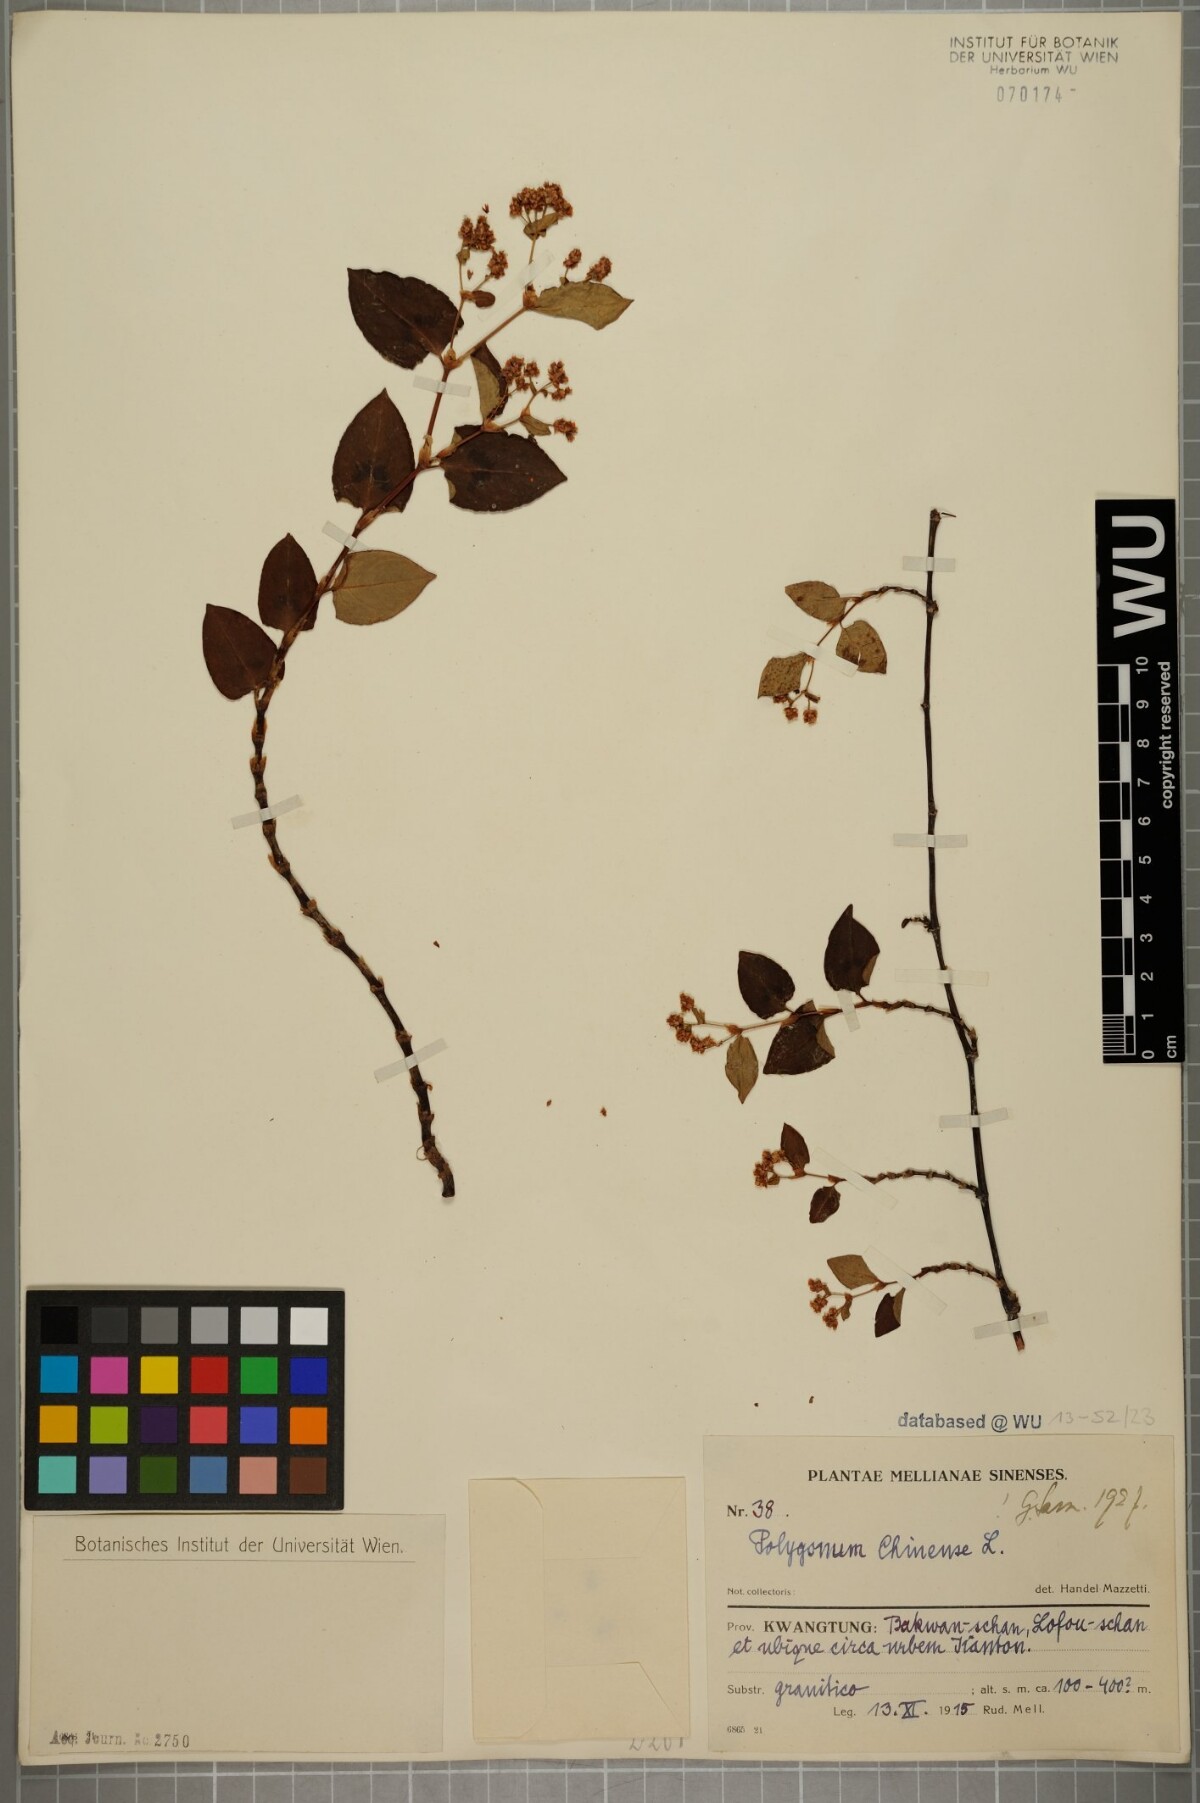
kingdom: Plantae
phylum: Tracheophyta
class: Magnoliopsida
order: Caryophyllales
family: Polygonaceae
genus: Persicaria
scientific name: Persicaria chinensis
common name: Chinese knotweed
